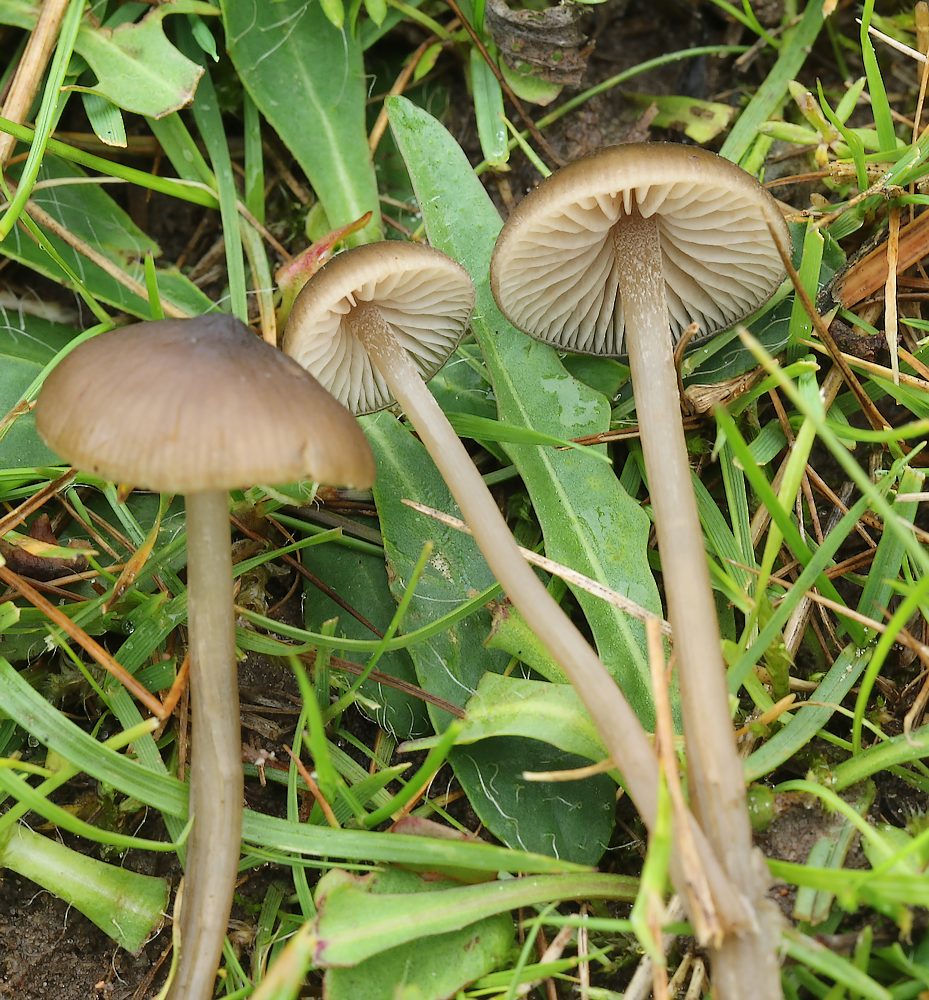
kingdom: Fungi
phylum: Basidiomycota
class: Agaricomycetes
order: Agaricales
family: Entolomataceae
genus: Entoloma
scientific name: Entoloma infula
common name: hvidbladet rødblad
